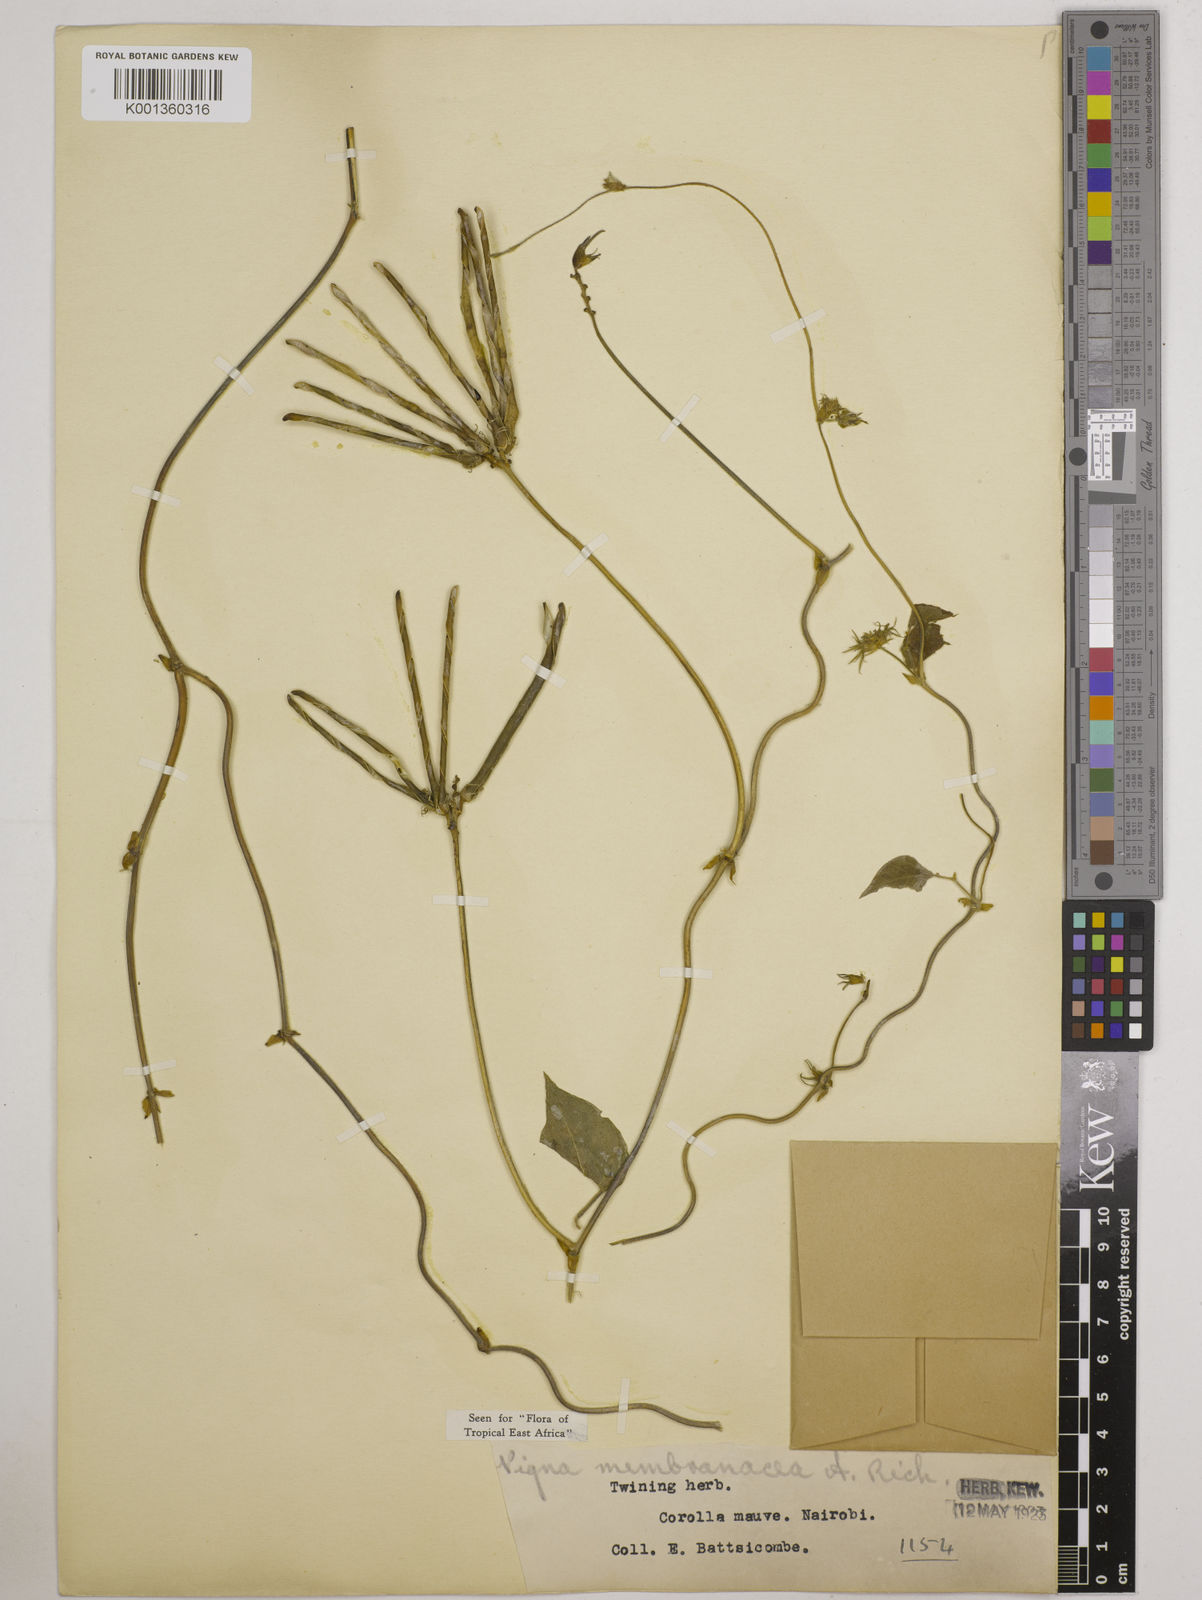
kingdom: Plantae
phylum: Tracheophyta
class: Magnoliopsida
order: Fabales
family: Fabaceae
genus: Vigna
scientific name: Vigna membranacea
